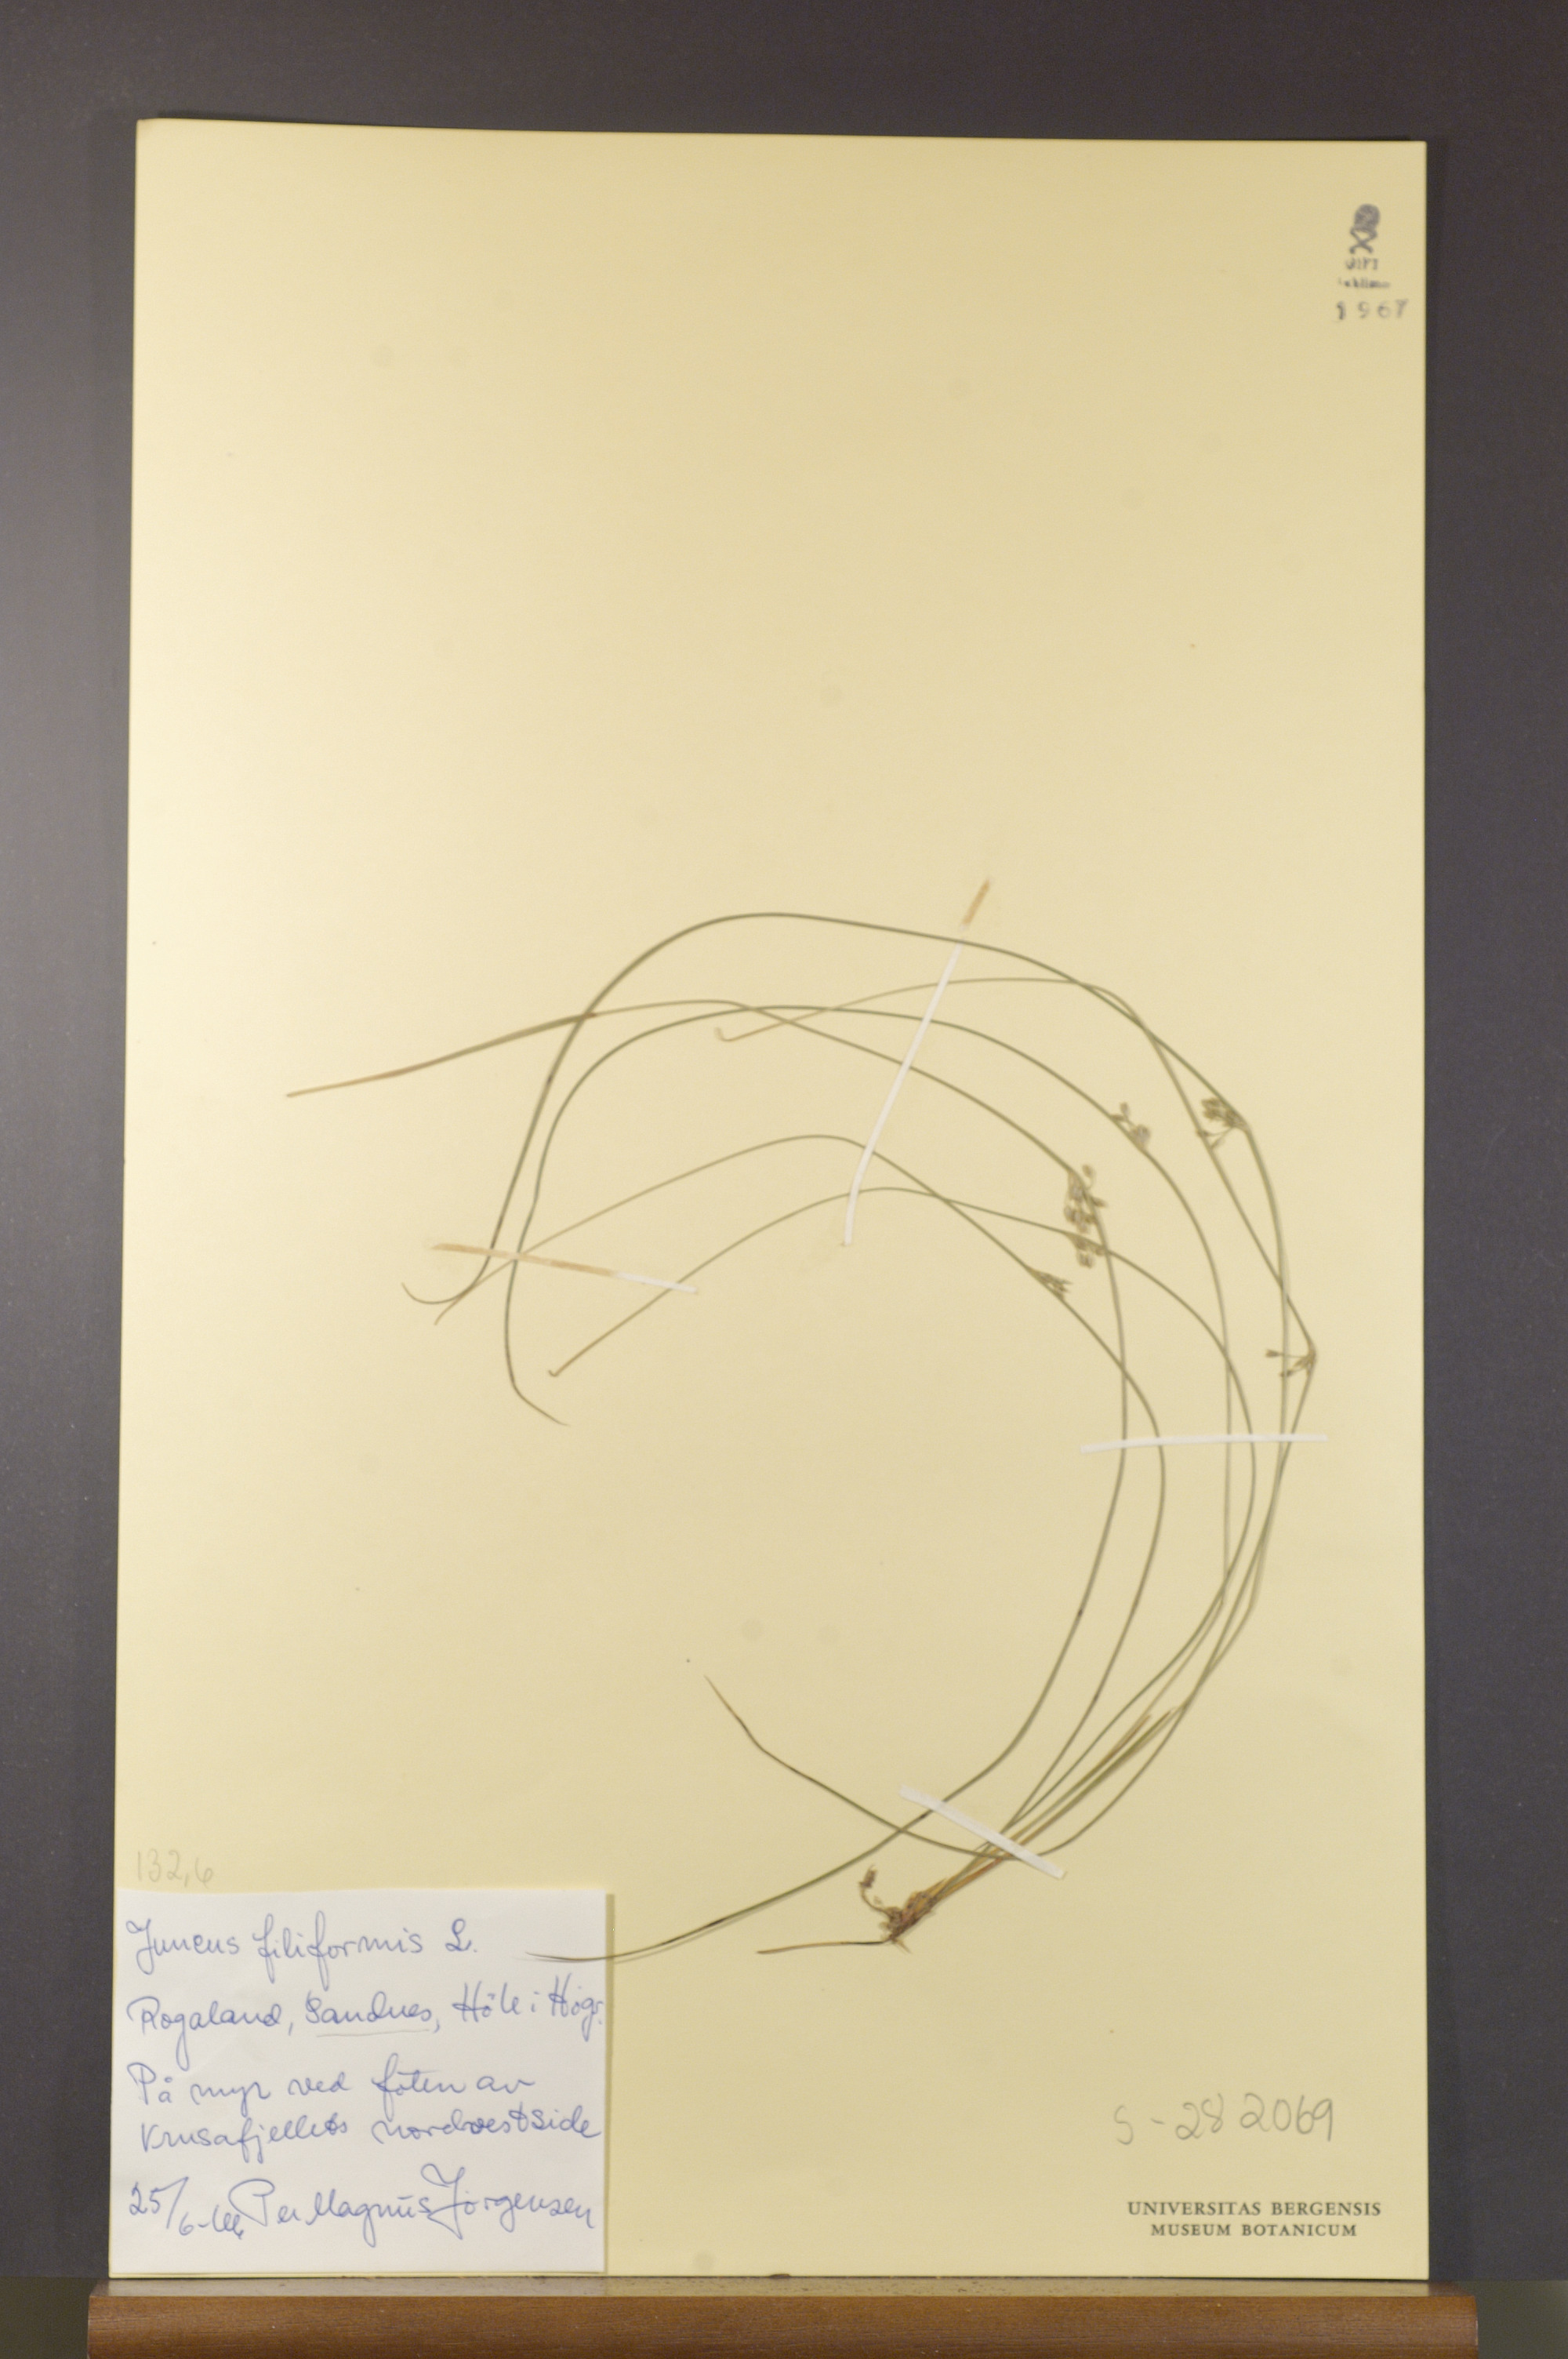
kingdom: Plantae
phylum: Tracheophyta
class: Liliopsida
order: Poales
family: Juncaceae
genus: Juncus
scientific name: Juncus filiformis
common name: Thread rush
